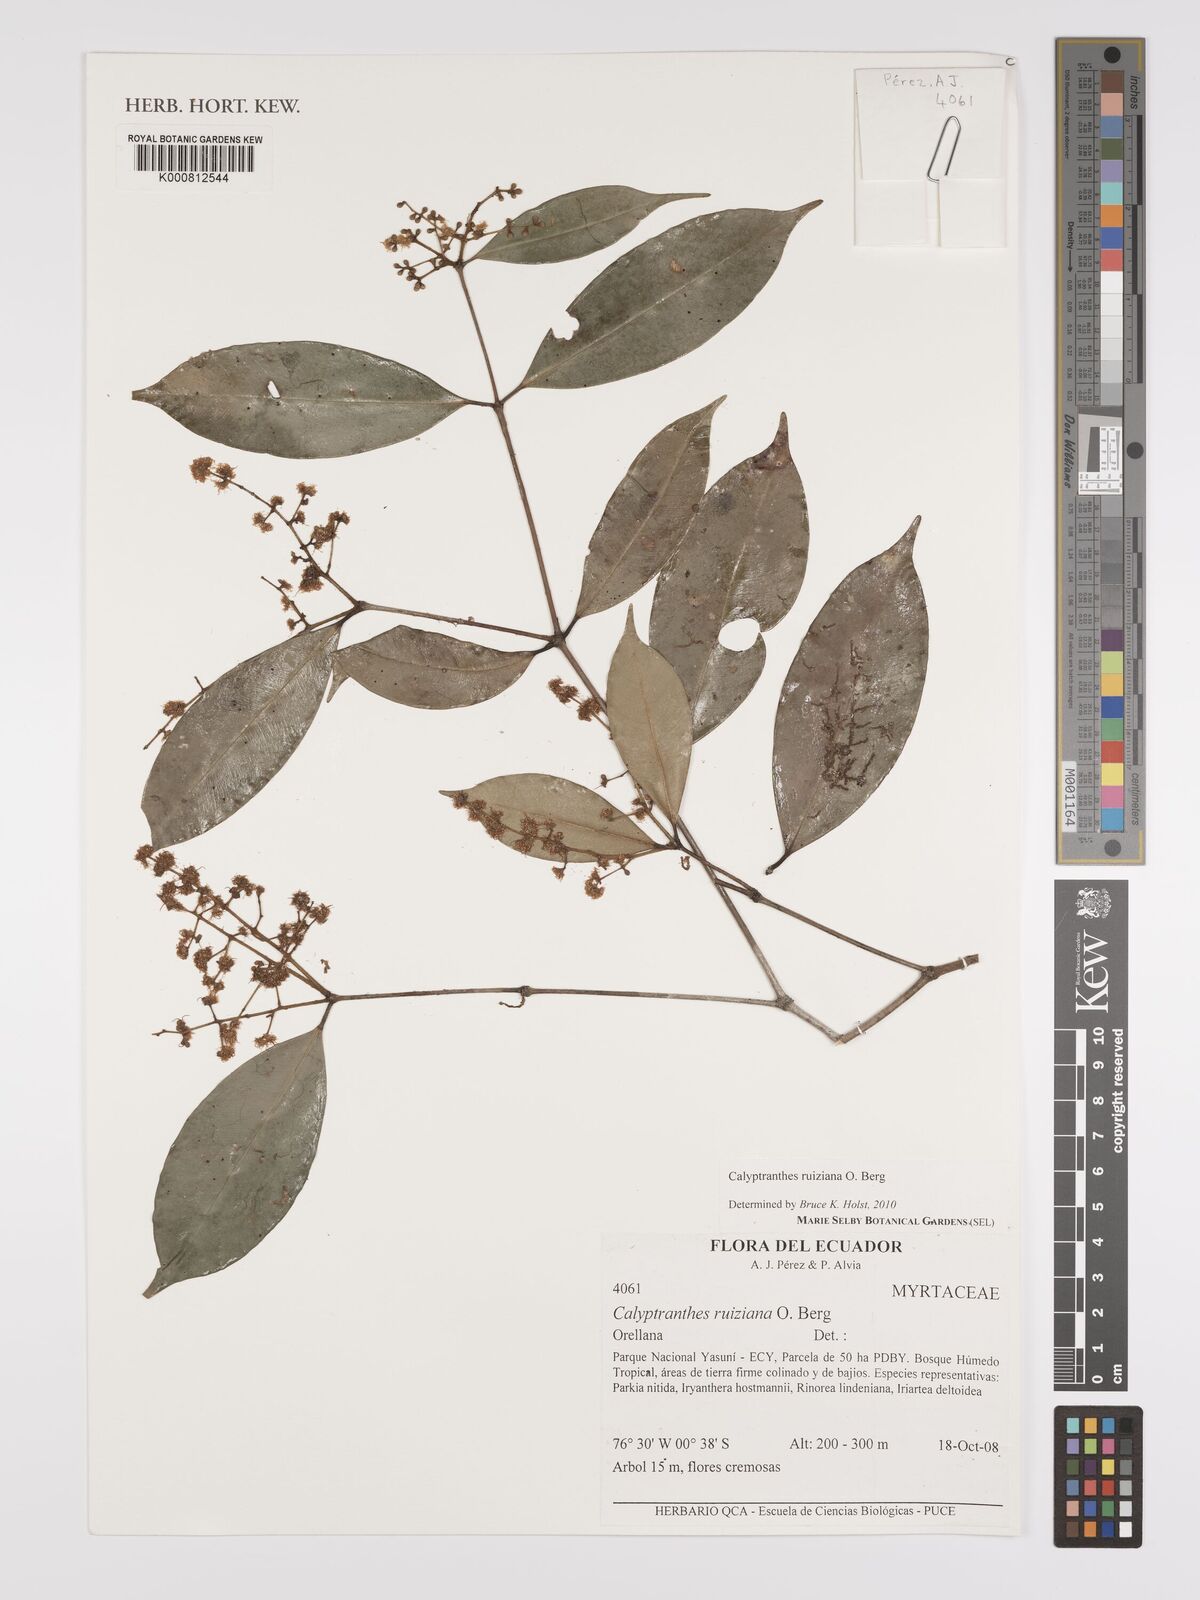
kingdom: Plantae
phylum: Tracheophyta
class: Magnoliopsida
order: Myrtales
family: Myrtaceae
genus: Myrcia
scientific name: Myrcia ruiziana
